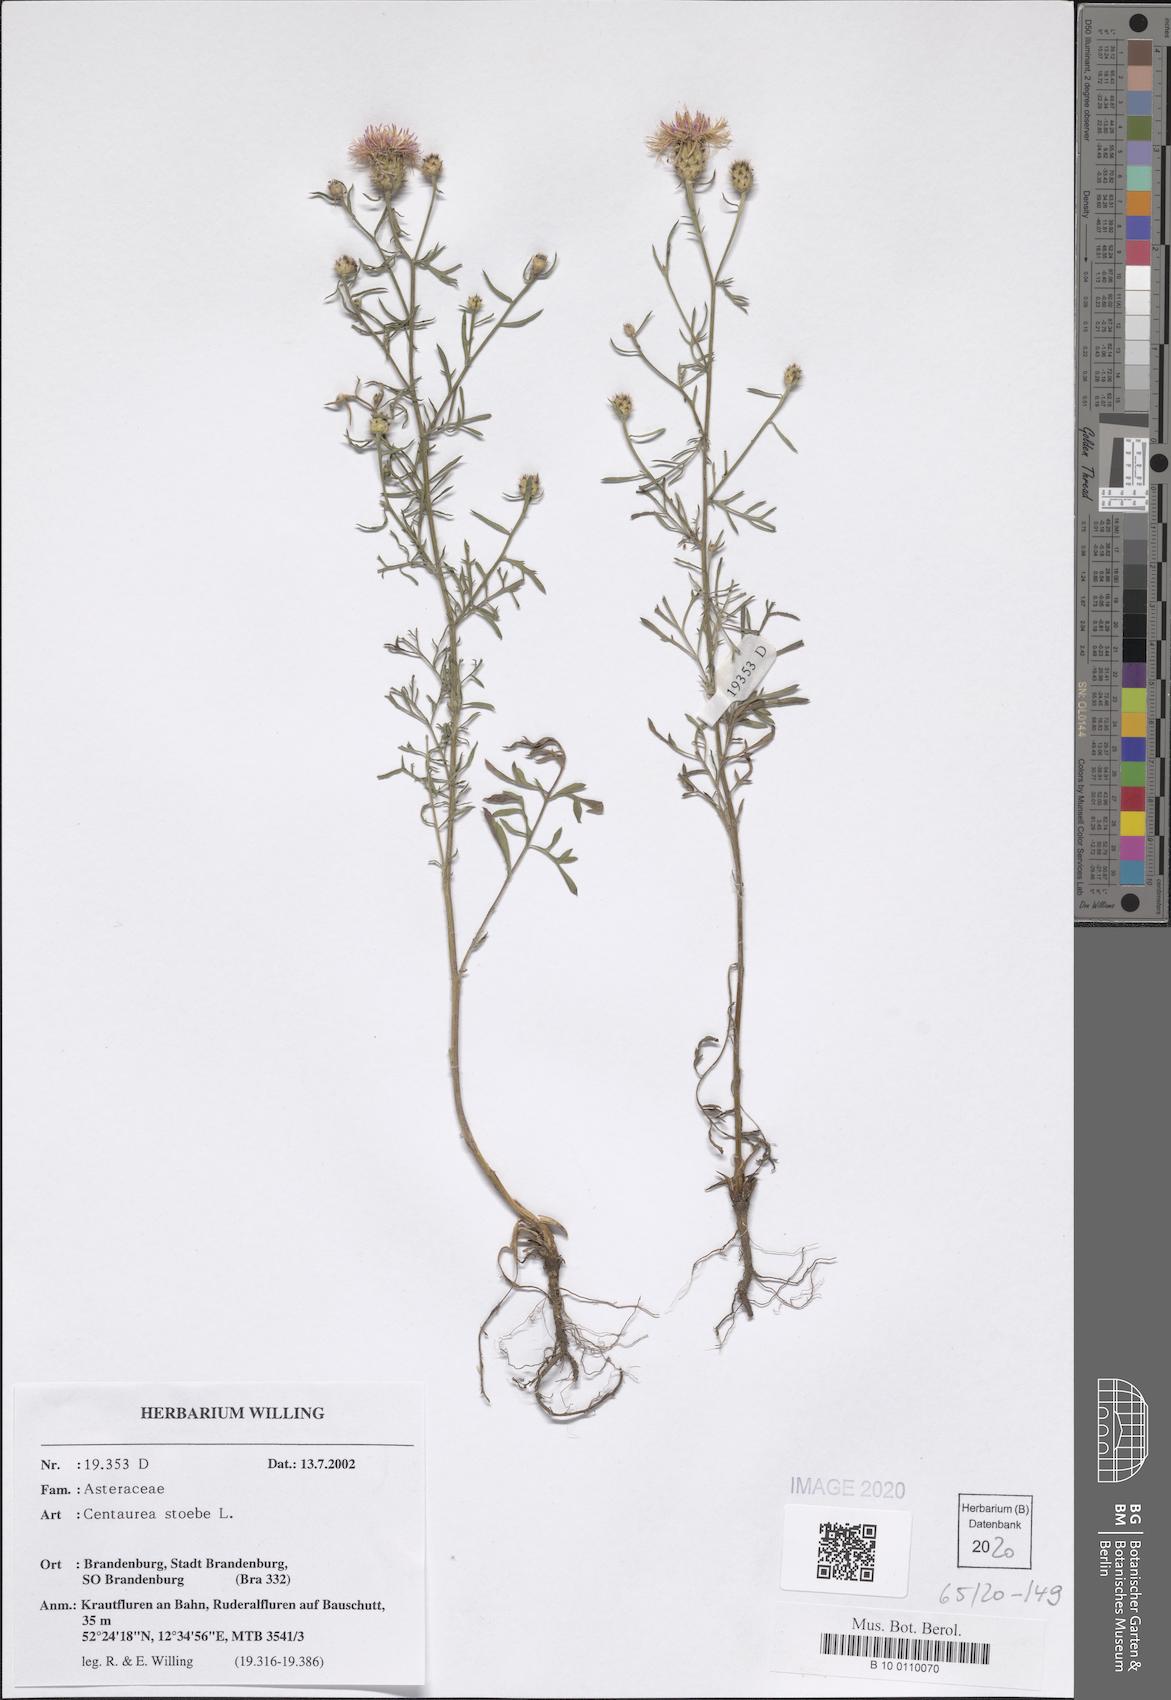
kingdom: Plantae
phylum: Tracheophyta
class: Magnoliopsida
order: Asterales
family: Asteraceae
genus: Centaurea
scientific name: Centaurea stoebe
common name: Spotted knapweed
